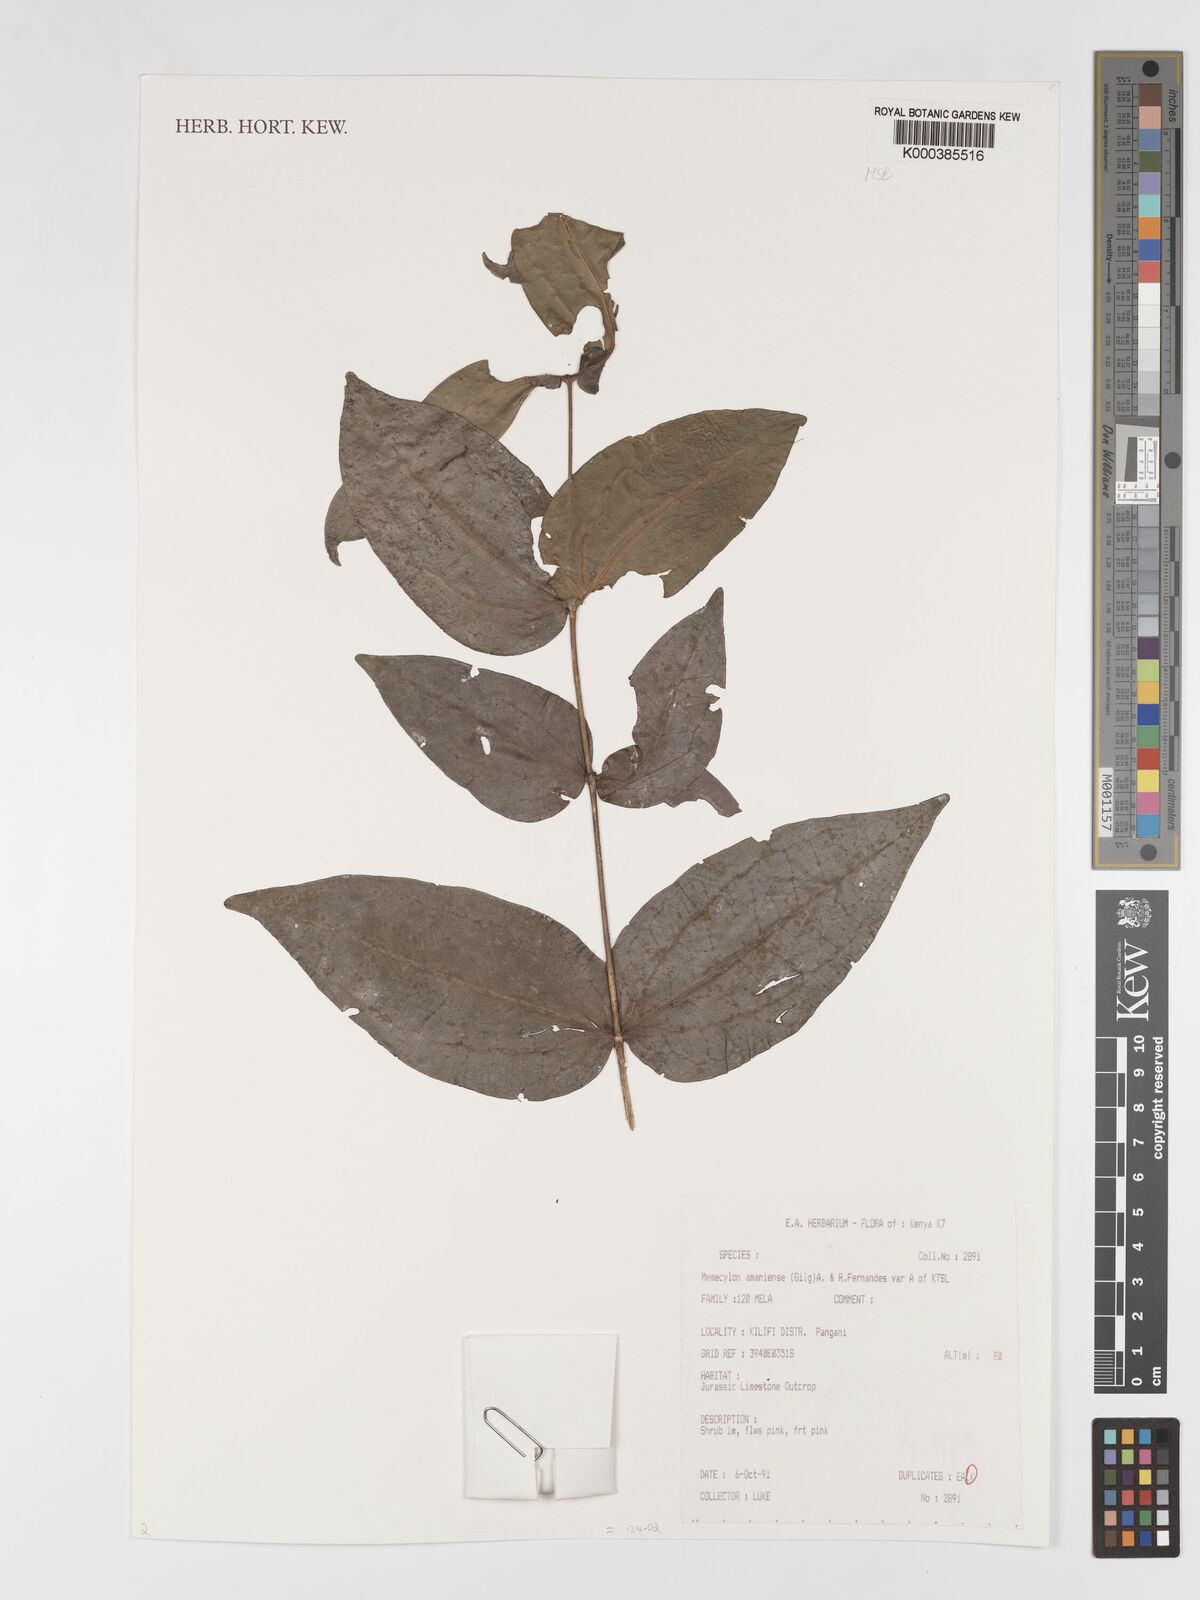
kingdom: Plantae
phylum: Tracheophyta
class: Magnoliopsida
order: Myrtales
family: Melastomataceae
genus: Warneckea
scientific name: Warneckea amaniensis
